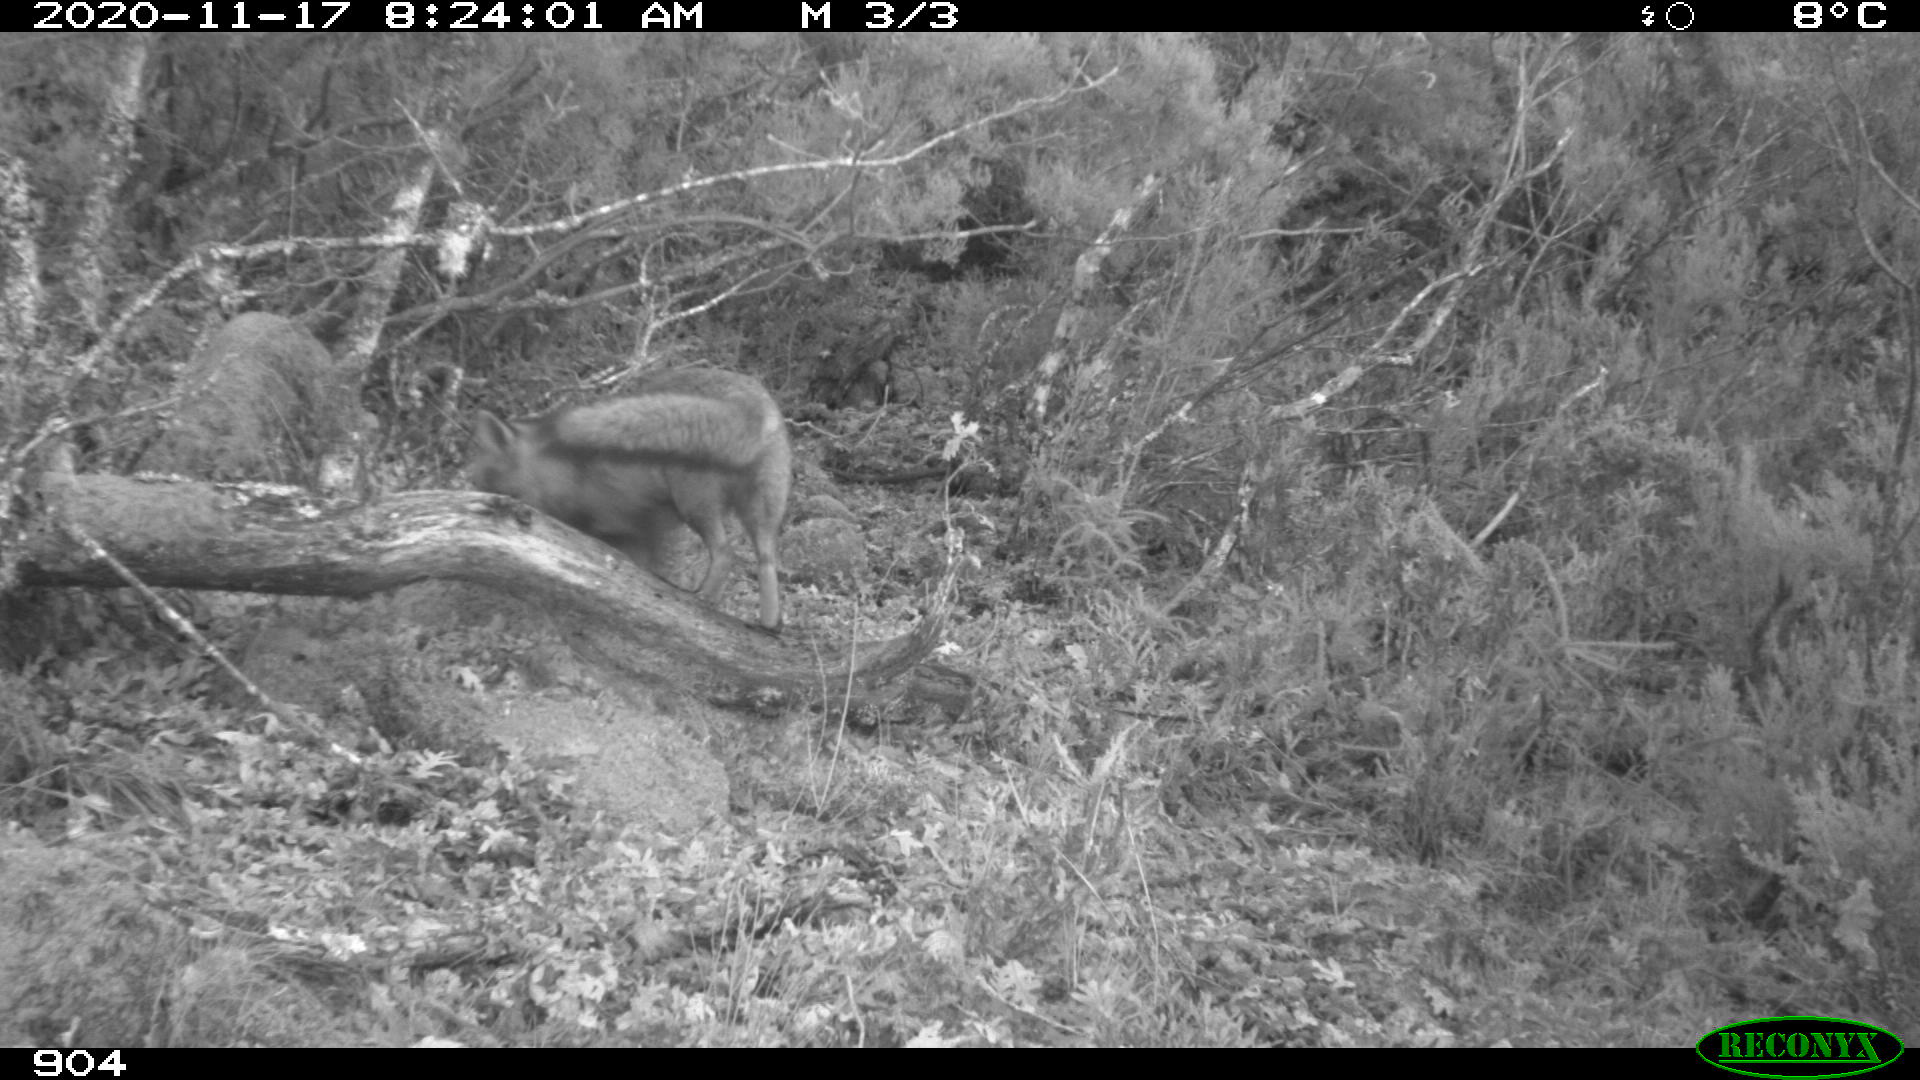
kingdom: Animalia
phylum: Chordata
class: Mammalia
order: Carnivora
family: Canidae
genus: Vulpes
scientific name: Vulpes vulpes
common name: Red fox
